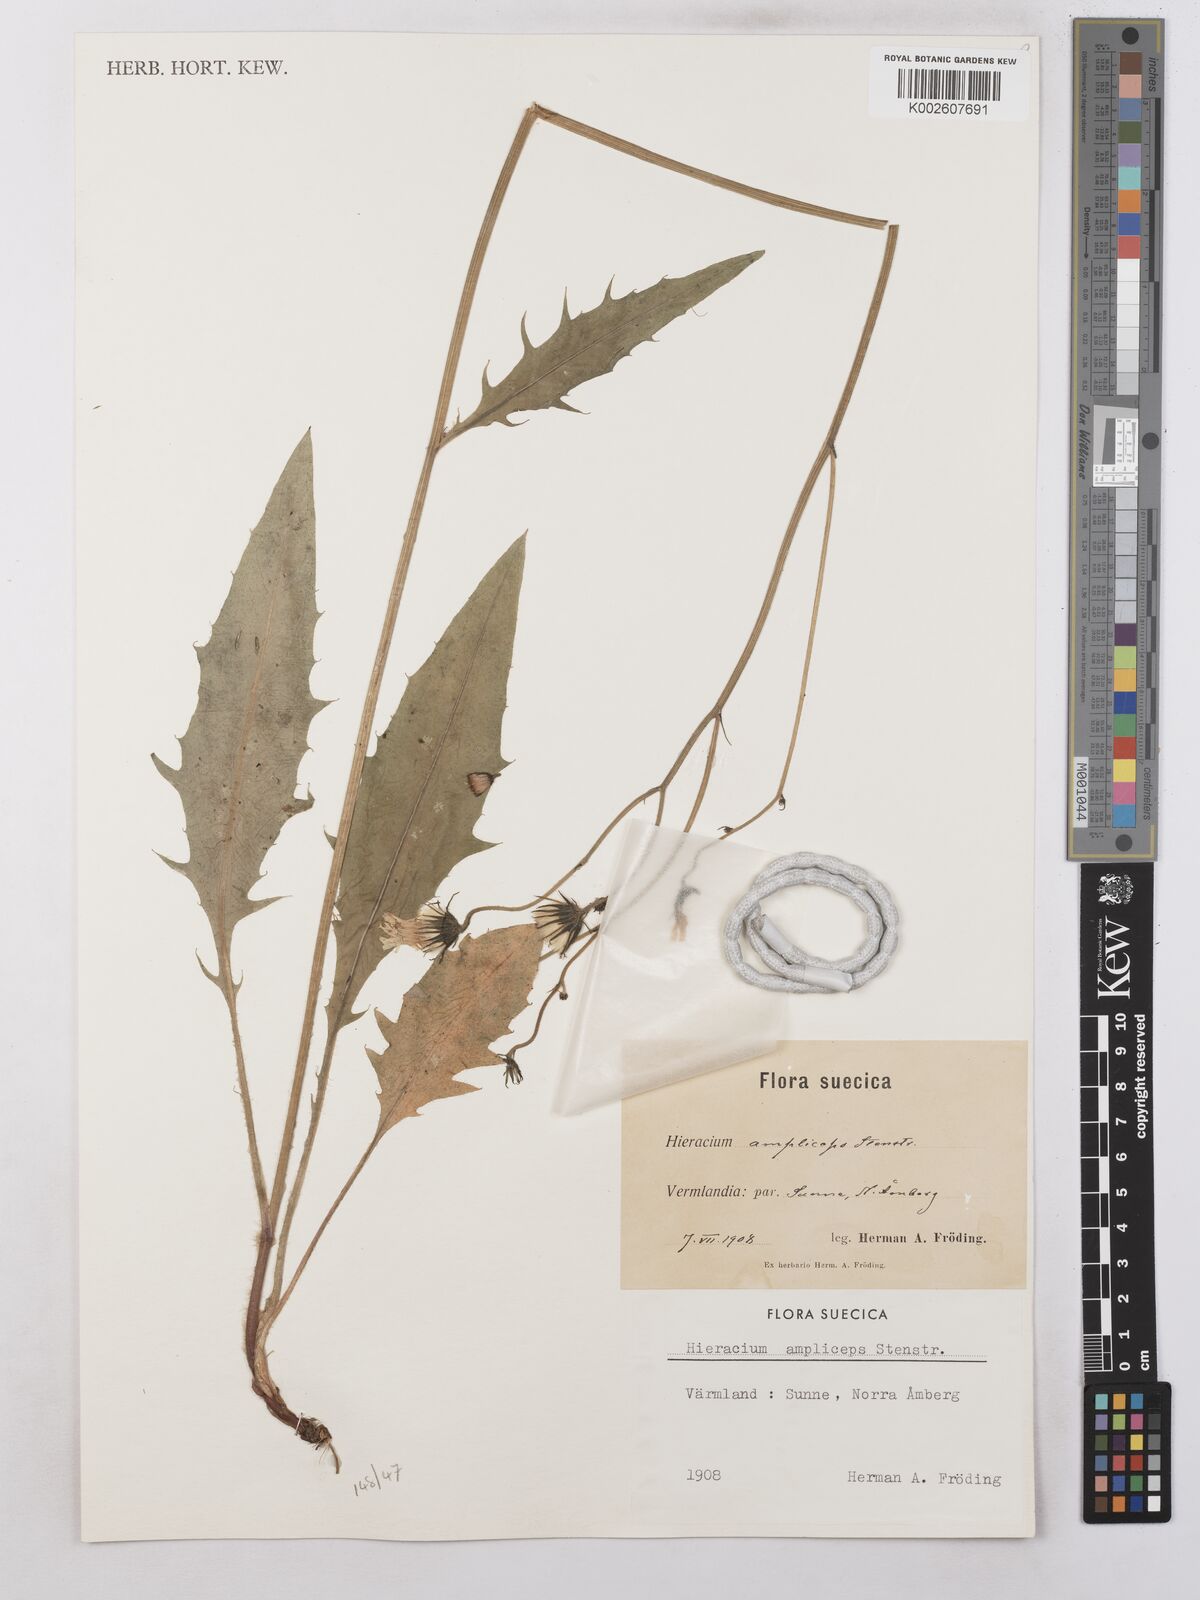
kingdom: Plantae
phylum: Tracheophyta
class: Magnoliopsida
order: Asterales
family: Asteraceae
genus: Hieracium
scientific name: Hieracium subramosum
